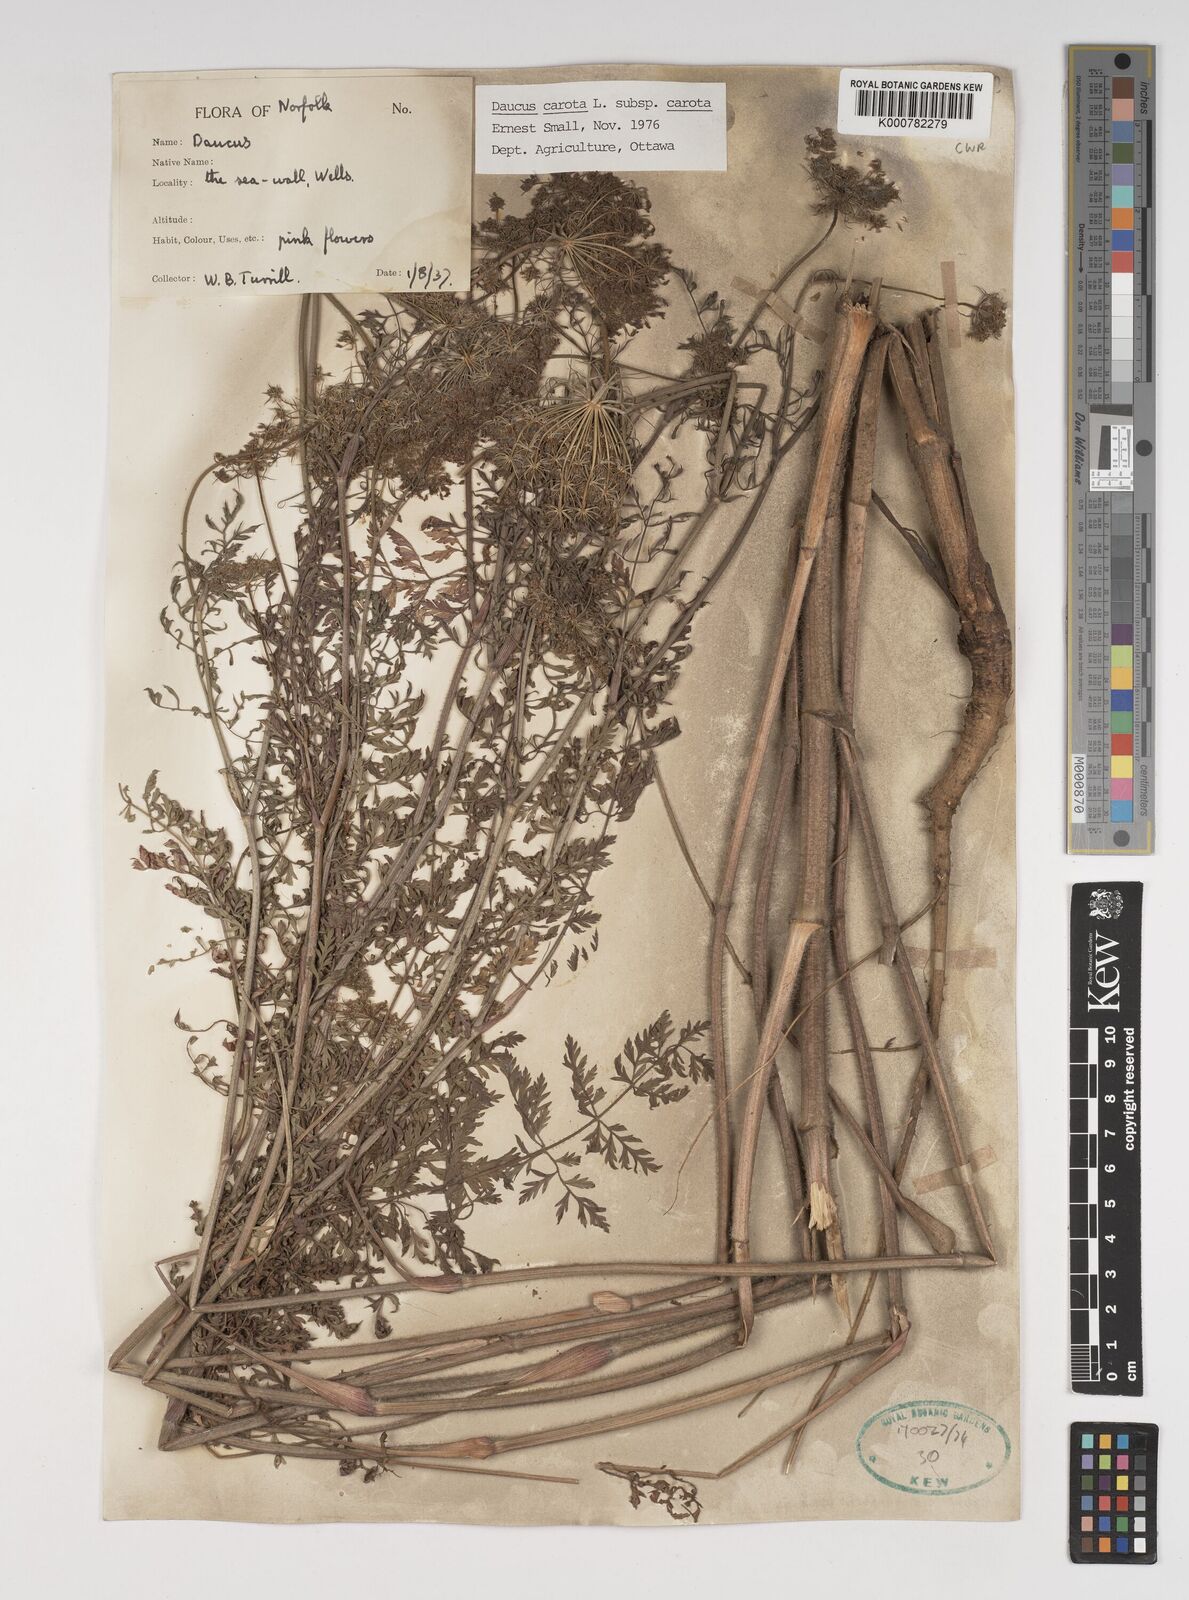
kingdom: Plantae
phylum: Tracheophyta
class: Magnoliopsida
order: Apiales
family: Apiaceae
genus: Daucus
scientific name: Daucus carota
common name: Wild carrot
